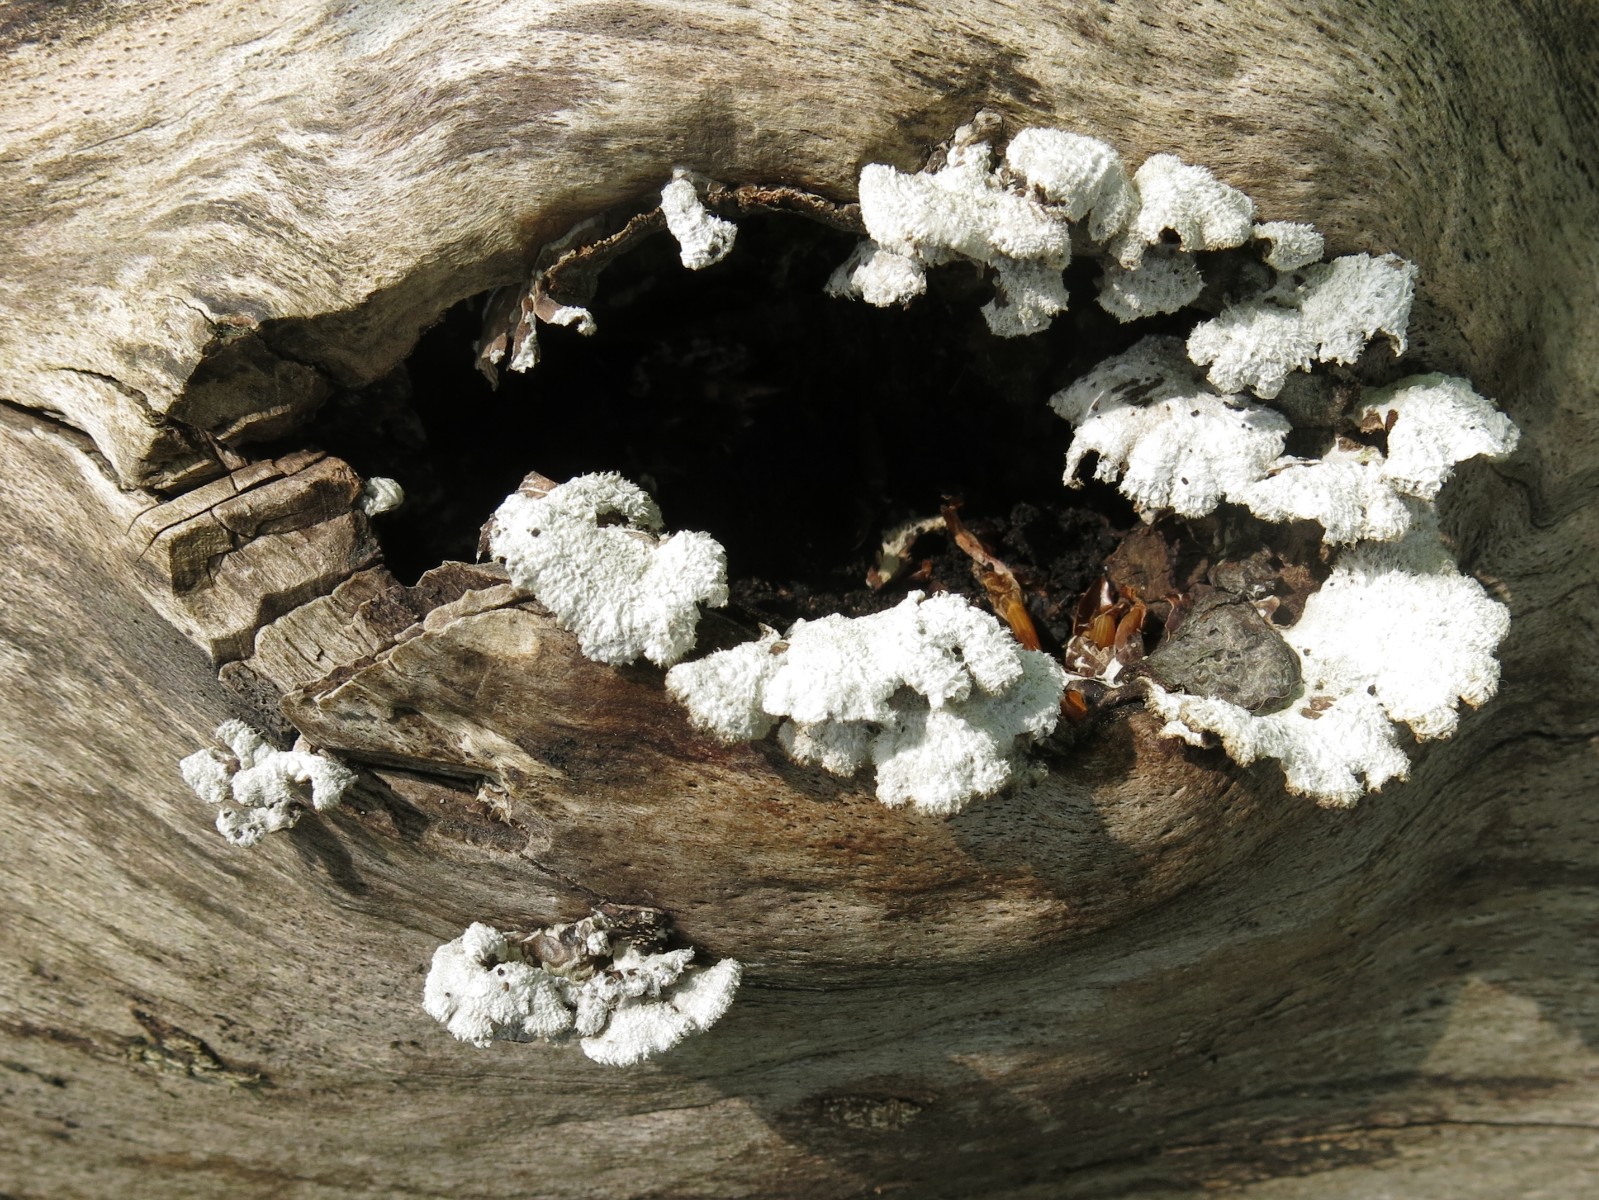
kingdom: Fungi
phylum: Basidiomycota
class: Agaricomycetes
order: Agaricales
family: Schizophyllaceae
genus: Schizophyllum
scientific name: Schizophyllum commune
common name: kløvblad
